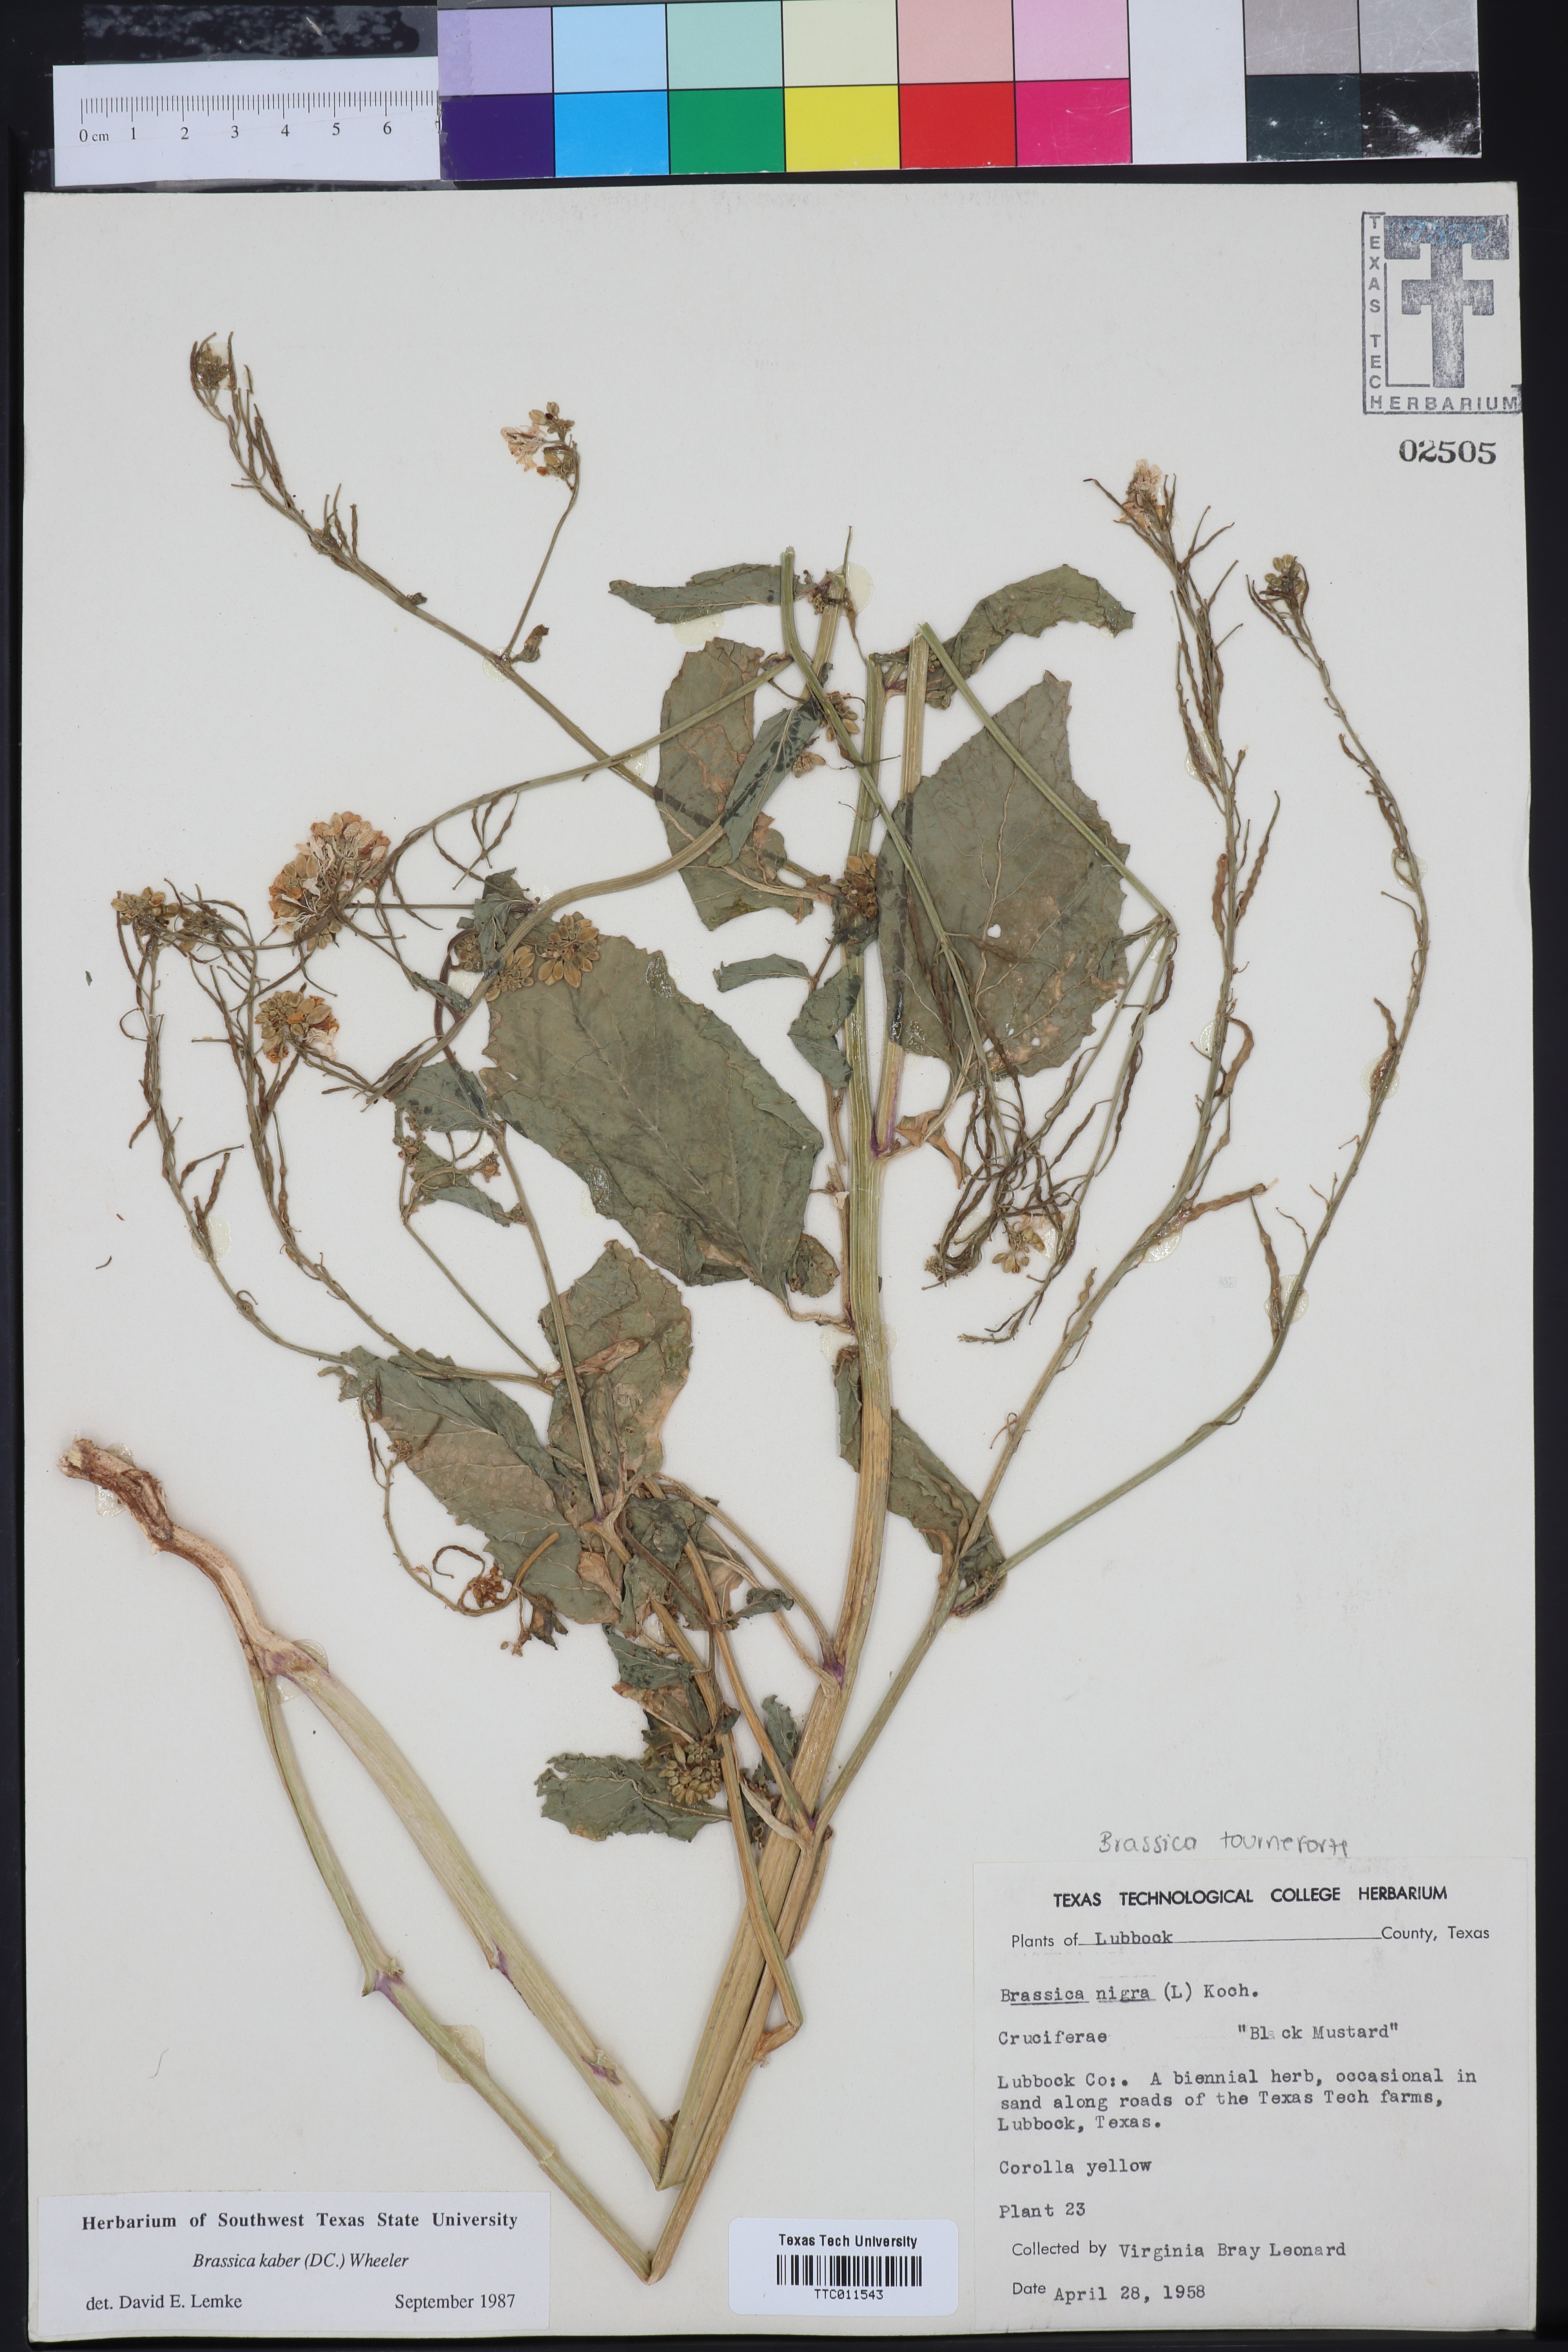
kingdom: Plantae
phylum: Tracheophyta
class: Magnoliopsida
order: Brassicales
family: Brassicaceae
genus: Brassica
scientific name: Brassica nigra
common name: Black mustard
